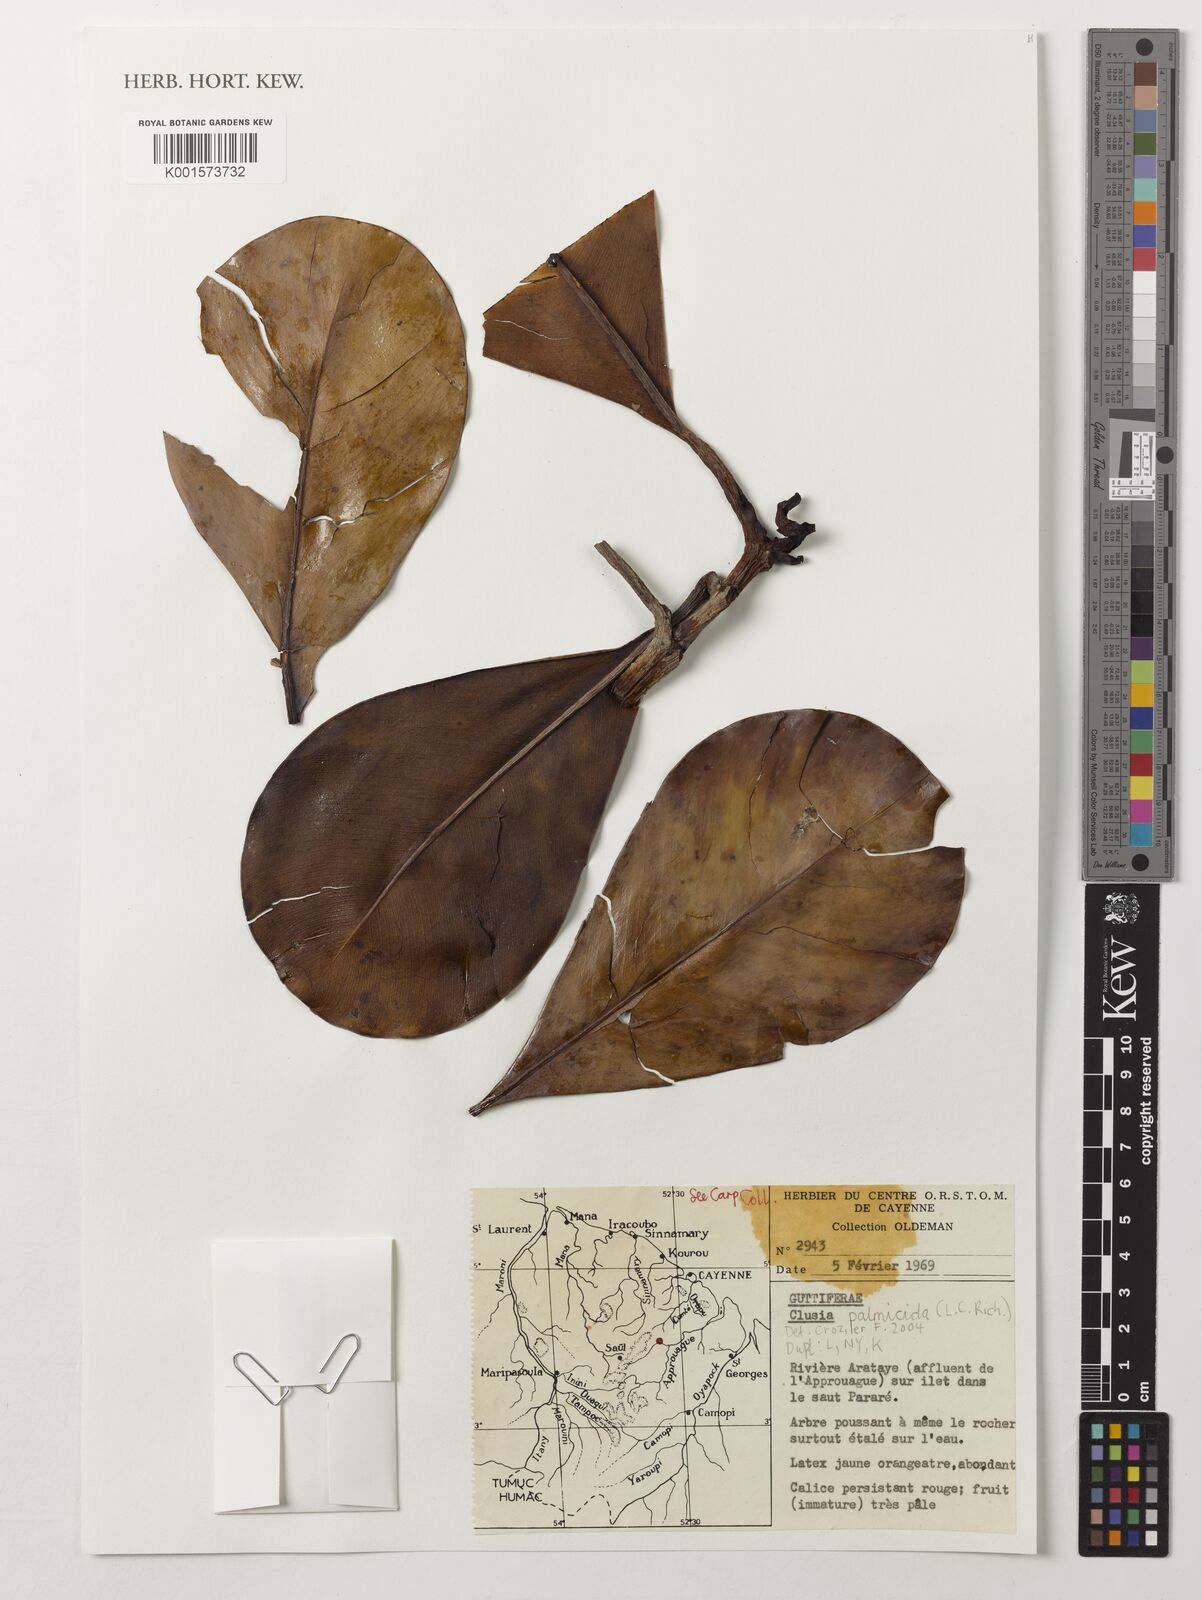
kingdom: Plantae
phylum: Tracheophyta
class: Magnoliopsida
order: Malpighiales
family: Clusiaceae
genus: Clusia
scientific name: Clusia palmicida
